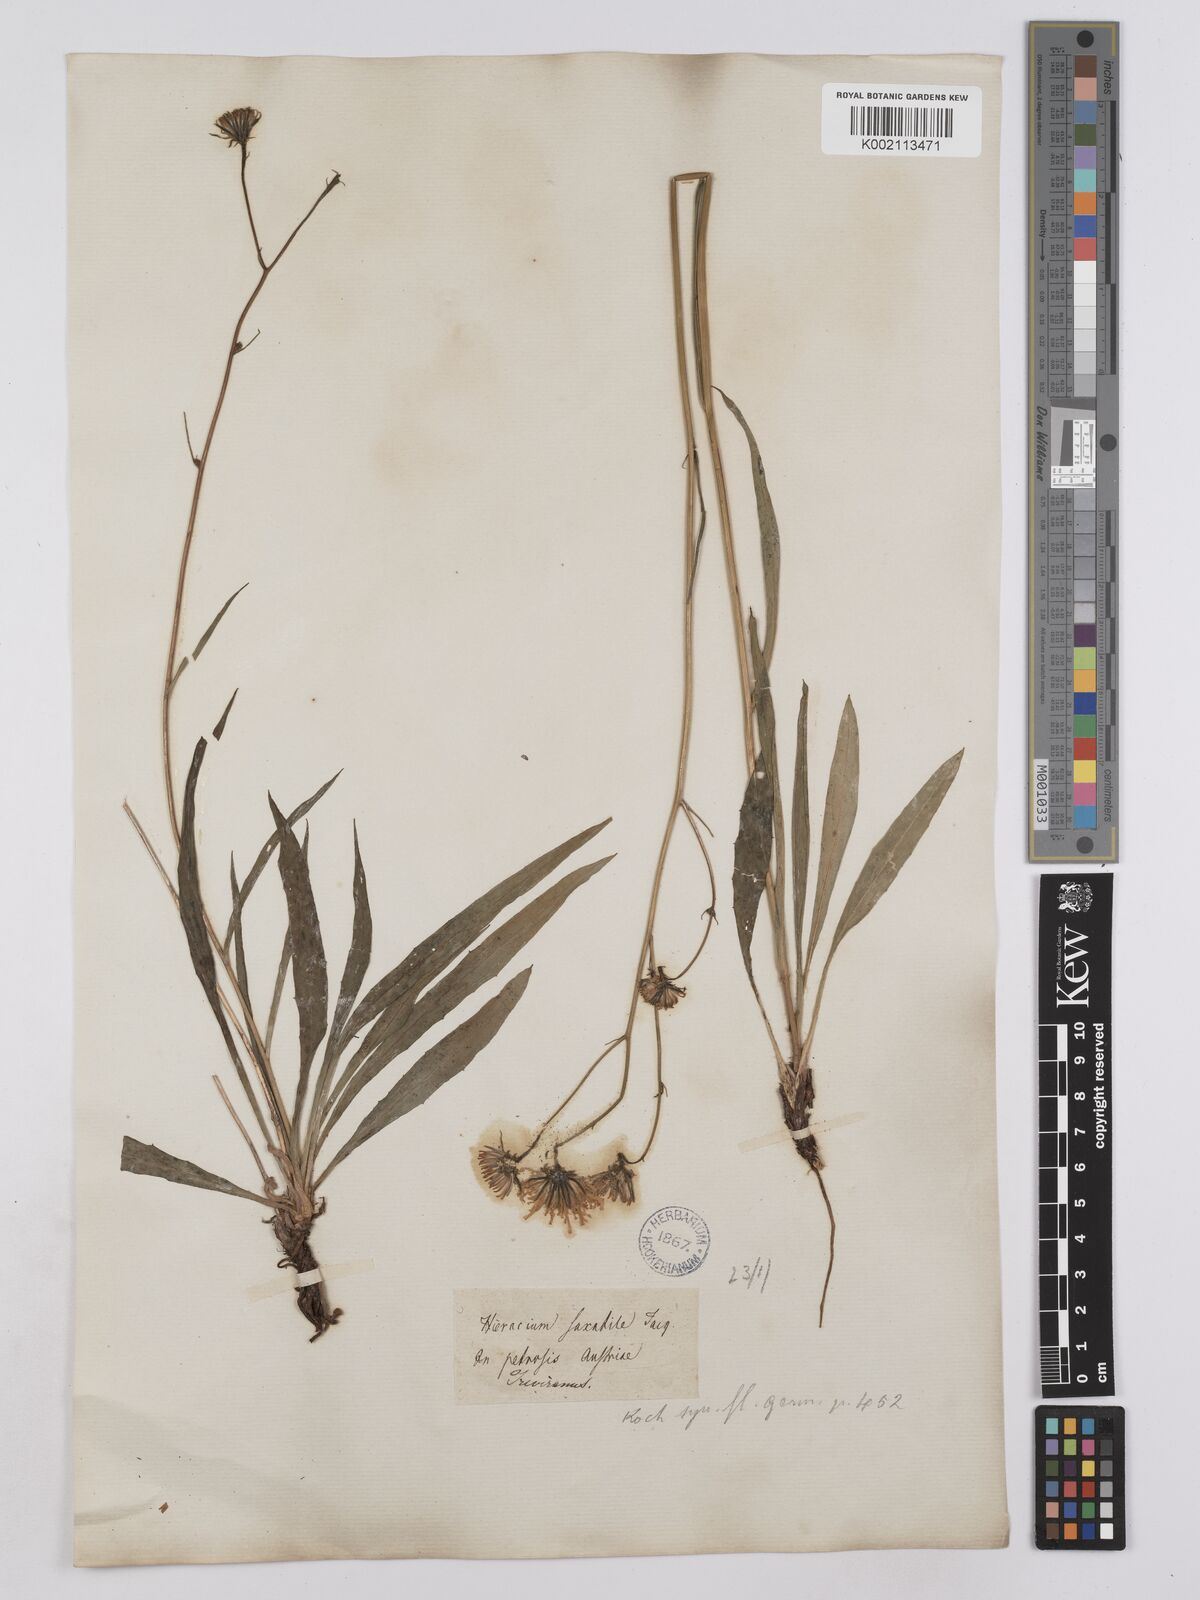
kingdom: Plantae
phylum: Tracheophyta
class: Magnoliopsida
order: Asterales
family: Asteraceae
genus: Hieracium
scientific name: Hieracium carneum
